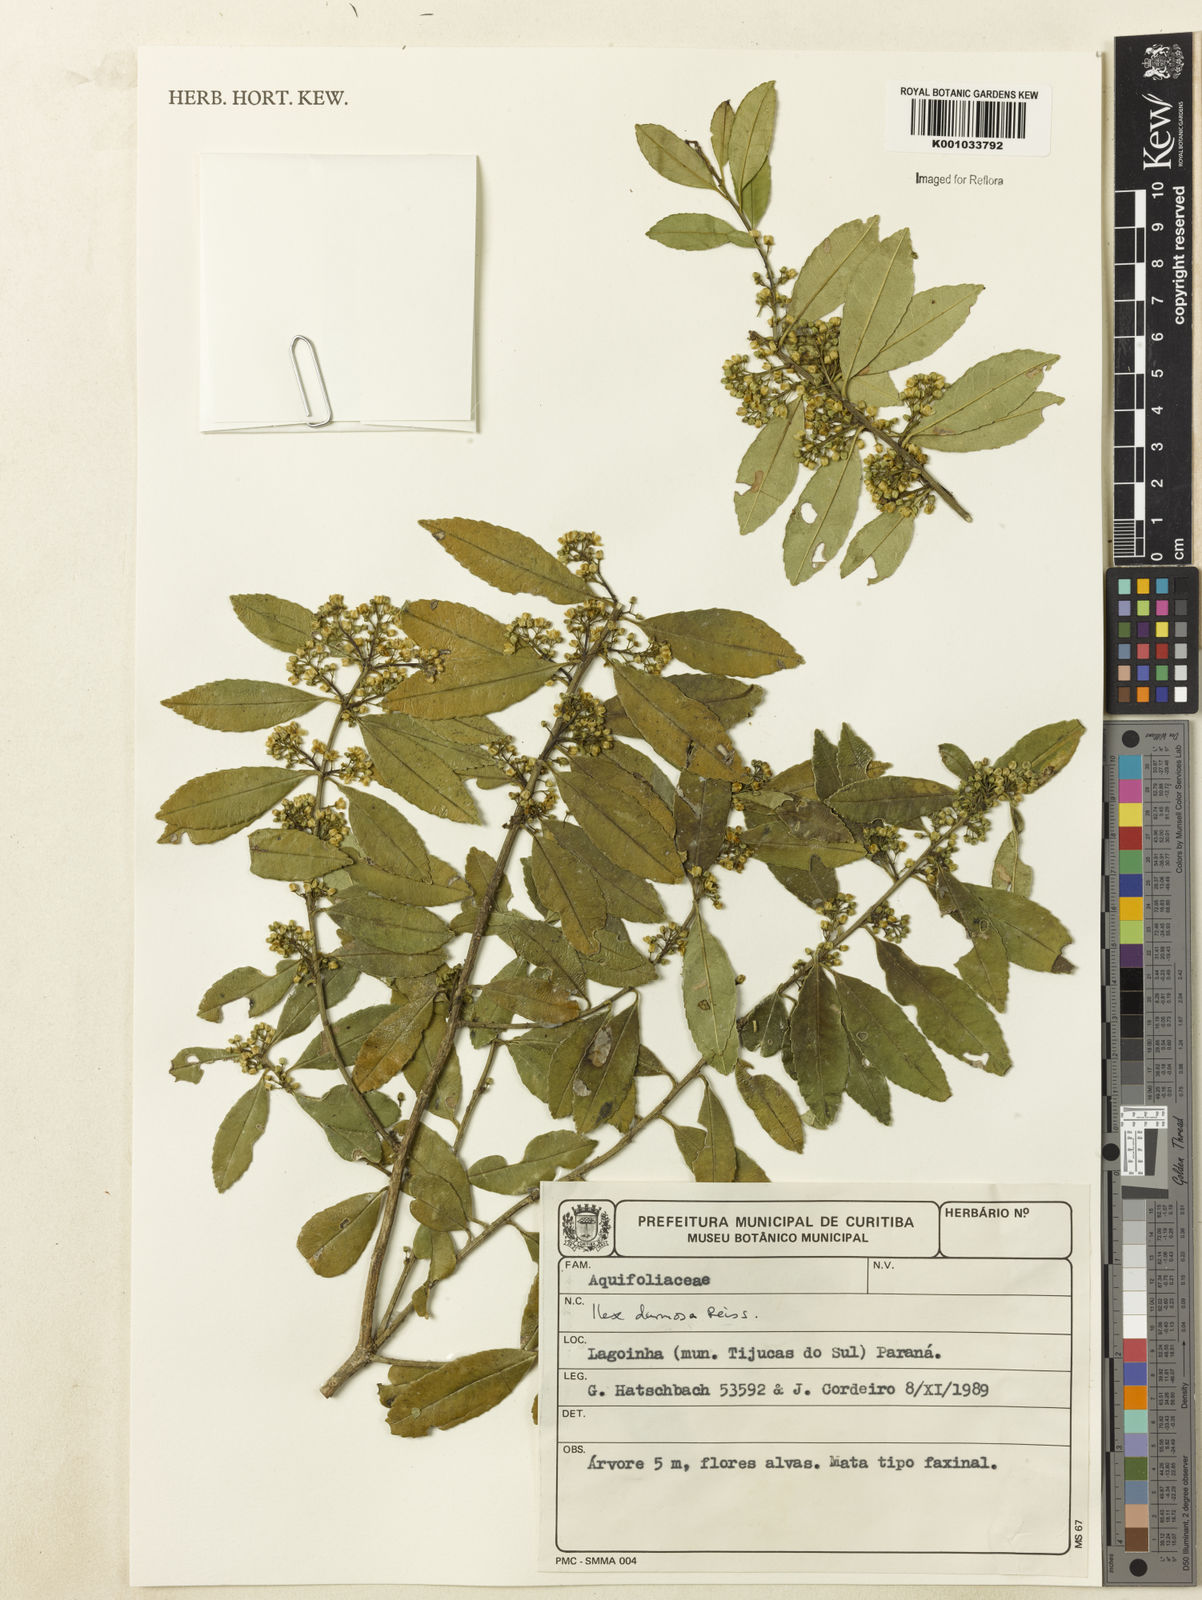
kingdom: Plantae
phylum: Tracheophyta
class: Magnoliopsida
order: Aquifoliales
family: Aquifoliaceae
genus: Ilex
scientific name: Ilex dumosa
